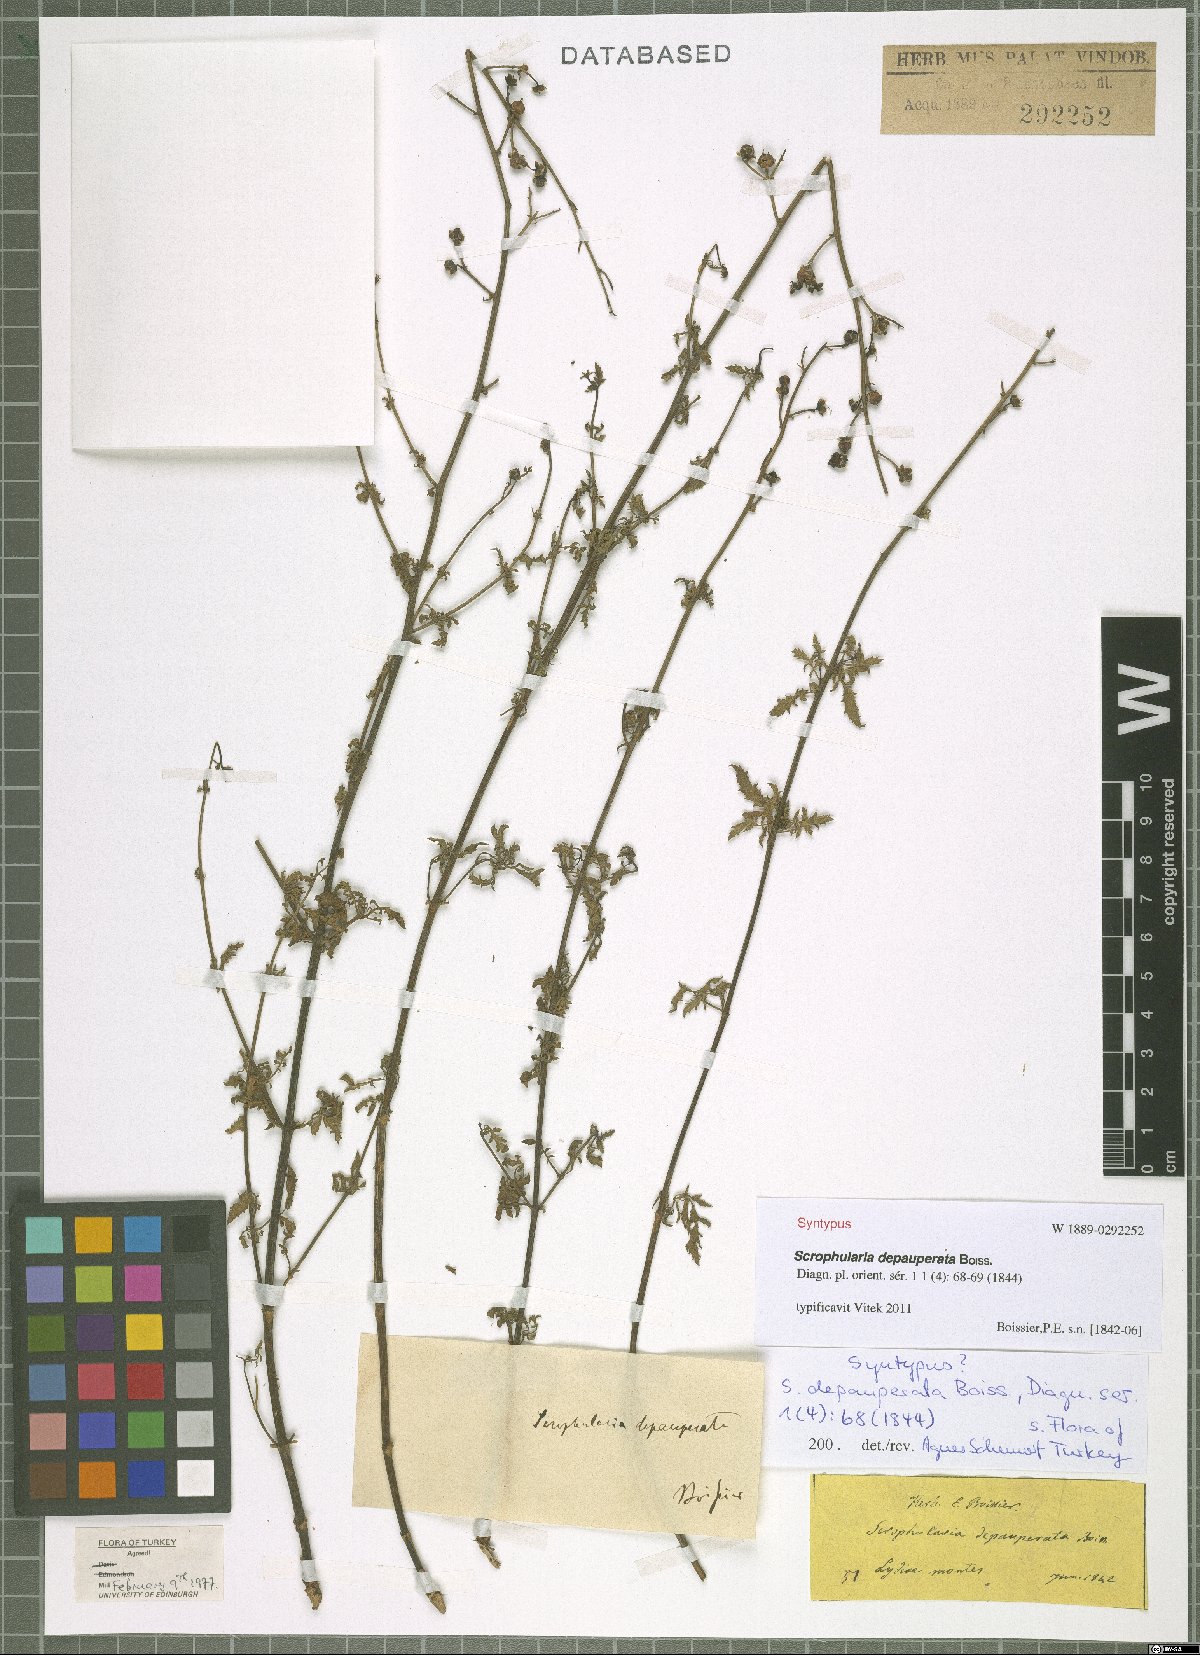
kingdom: Plantae
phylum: Tracheophyta
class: Magnoliopsida
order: Lamiales
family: Scrophulariaceae
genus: Scrophularia
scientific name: Scrophularia depauperata
